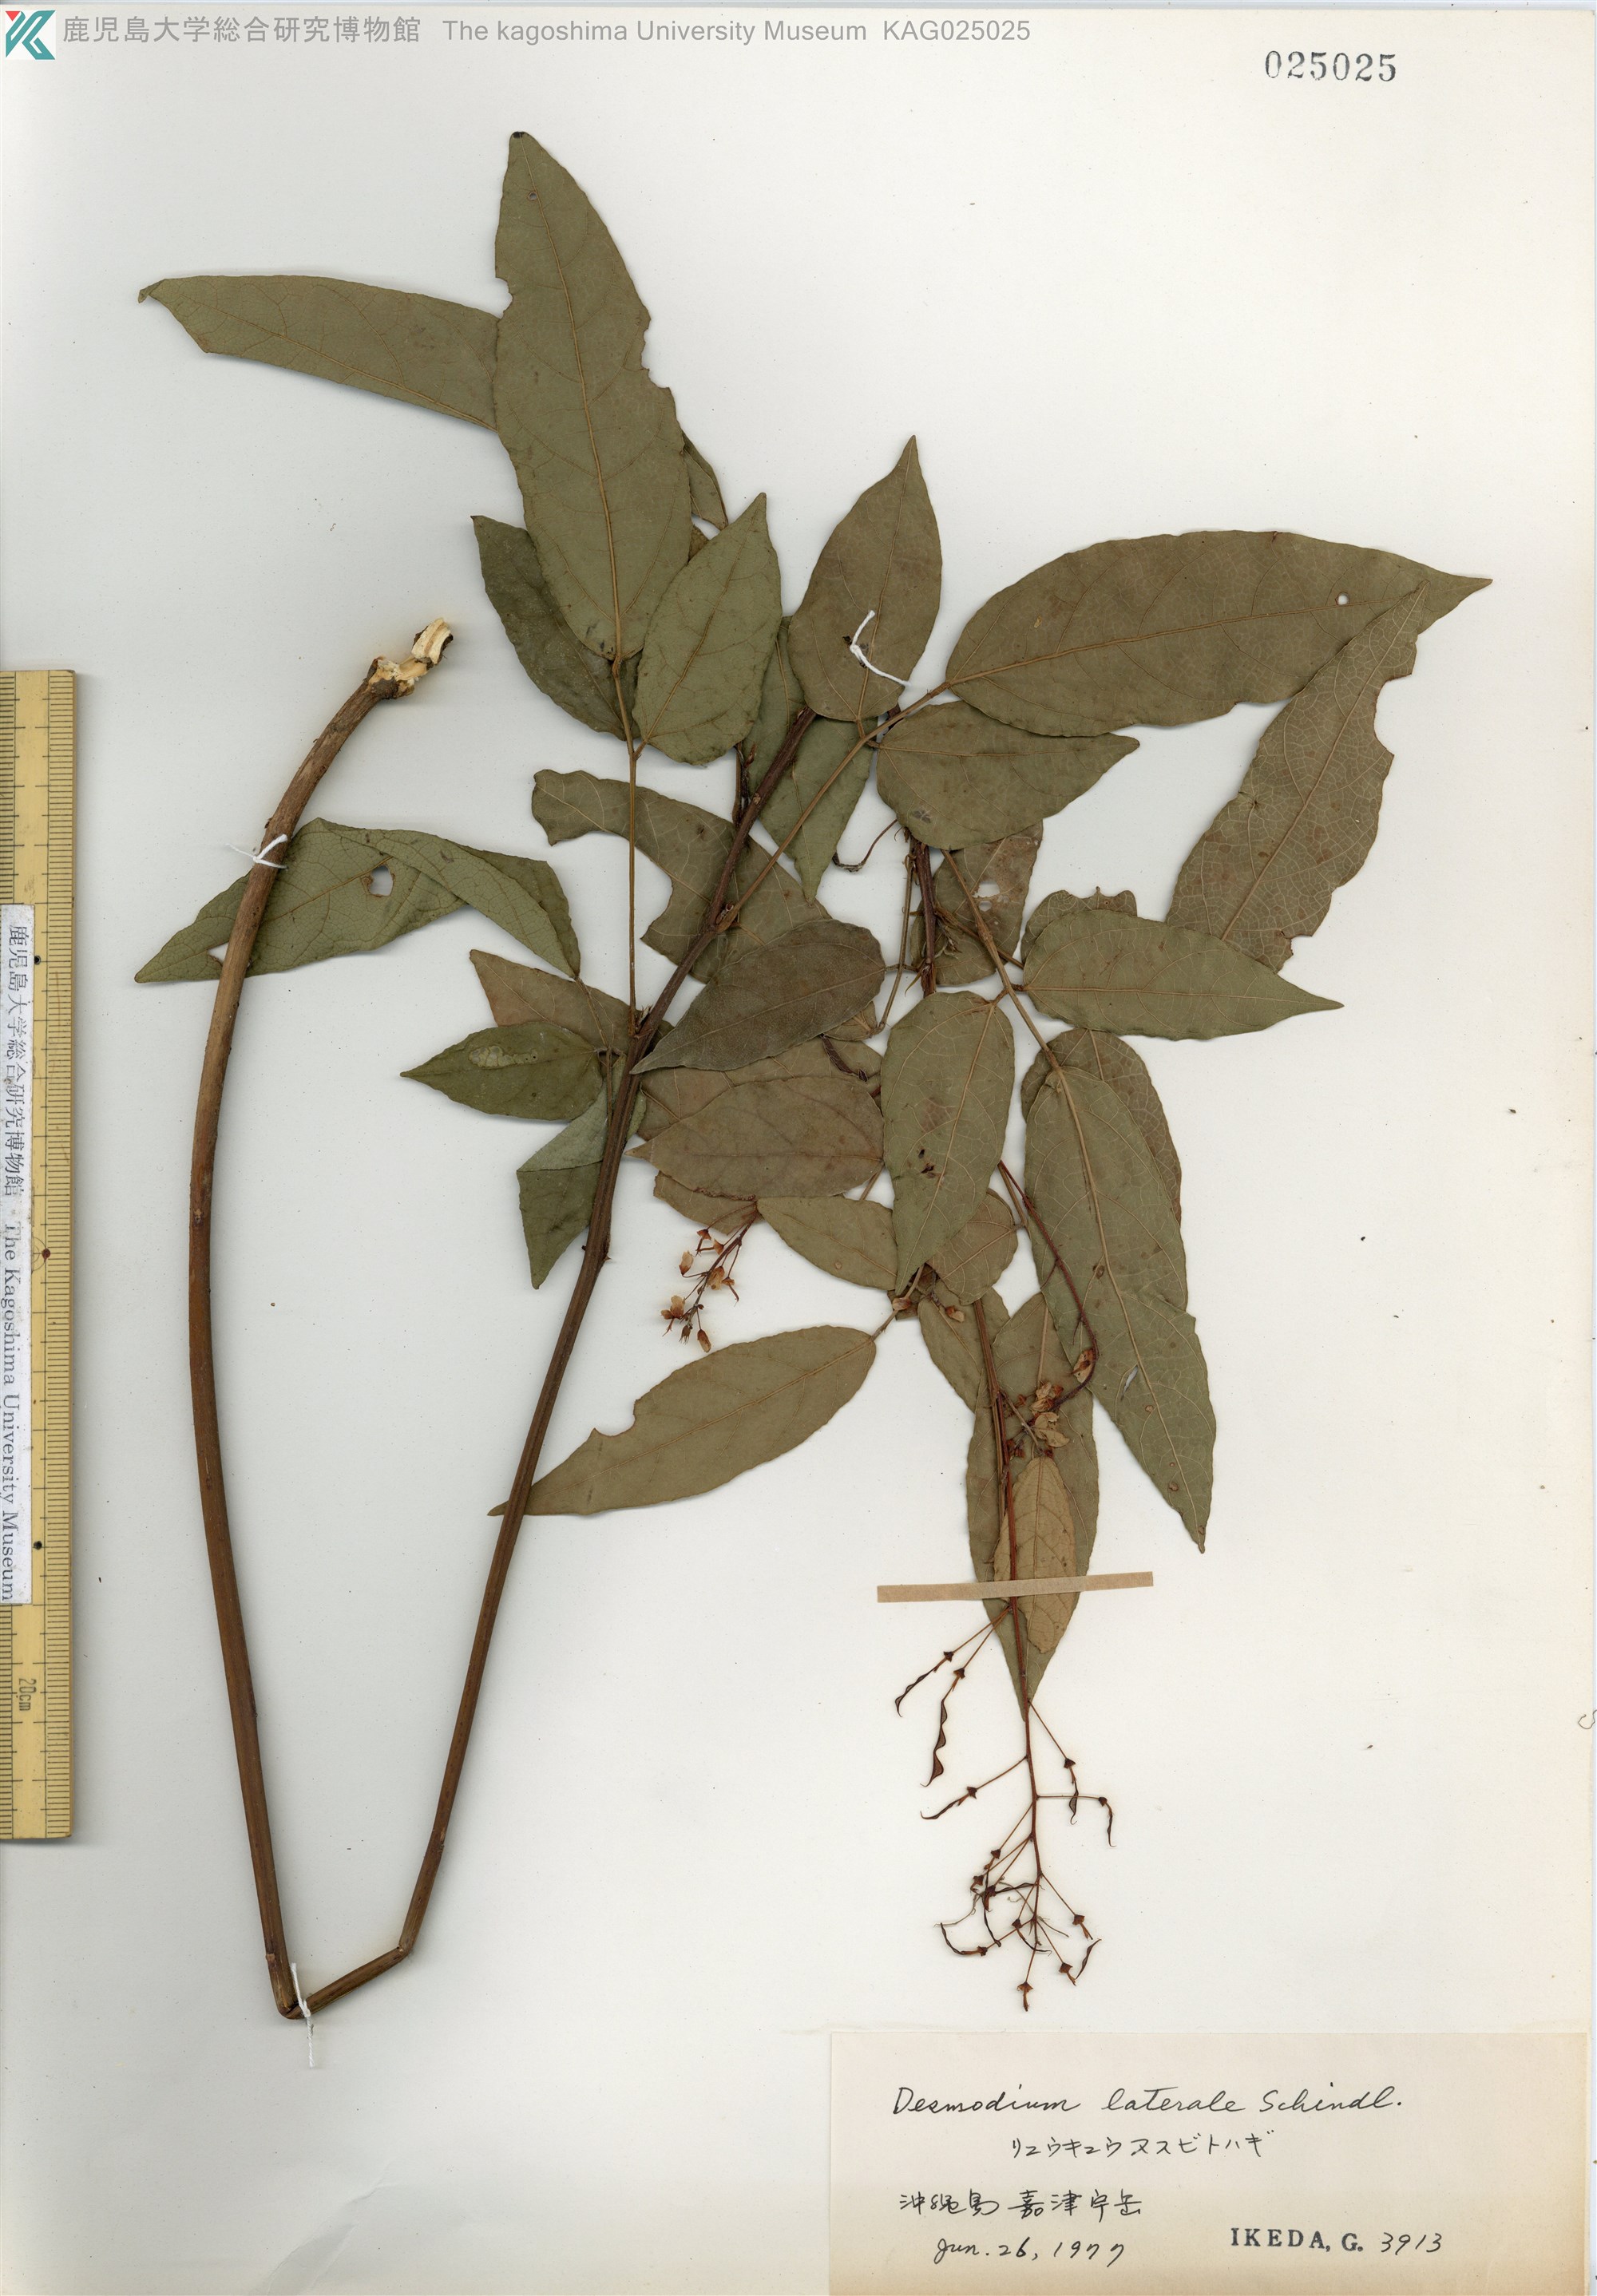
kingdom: Plantae
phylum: Tracheophyta
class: Magnoliopsida
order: Fabales
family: Fabaceae
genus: Hylodesmum
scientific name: Hylodesmum laterale
